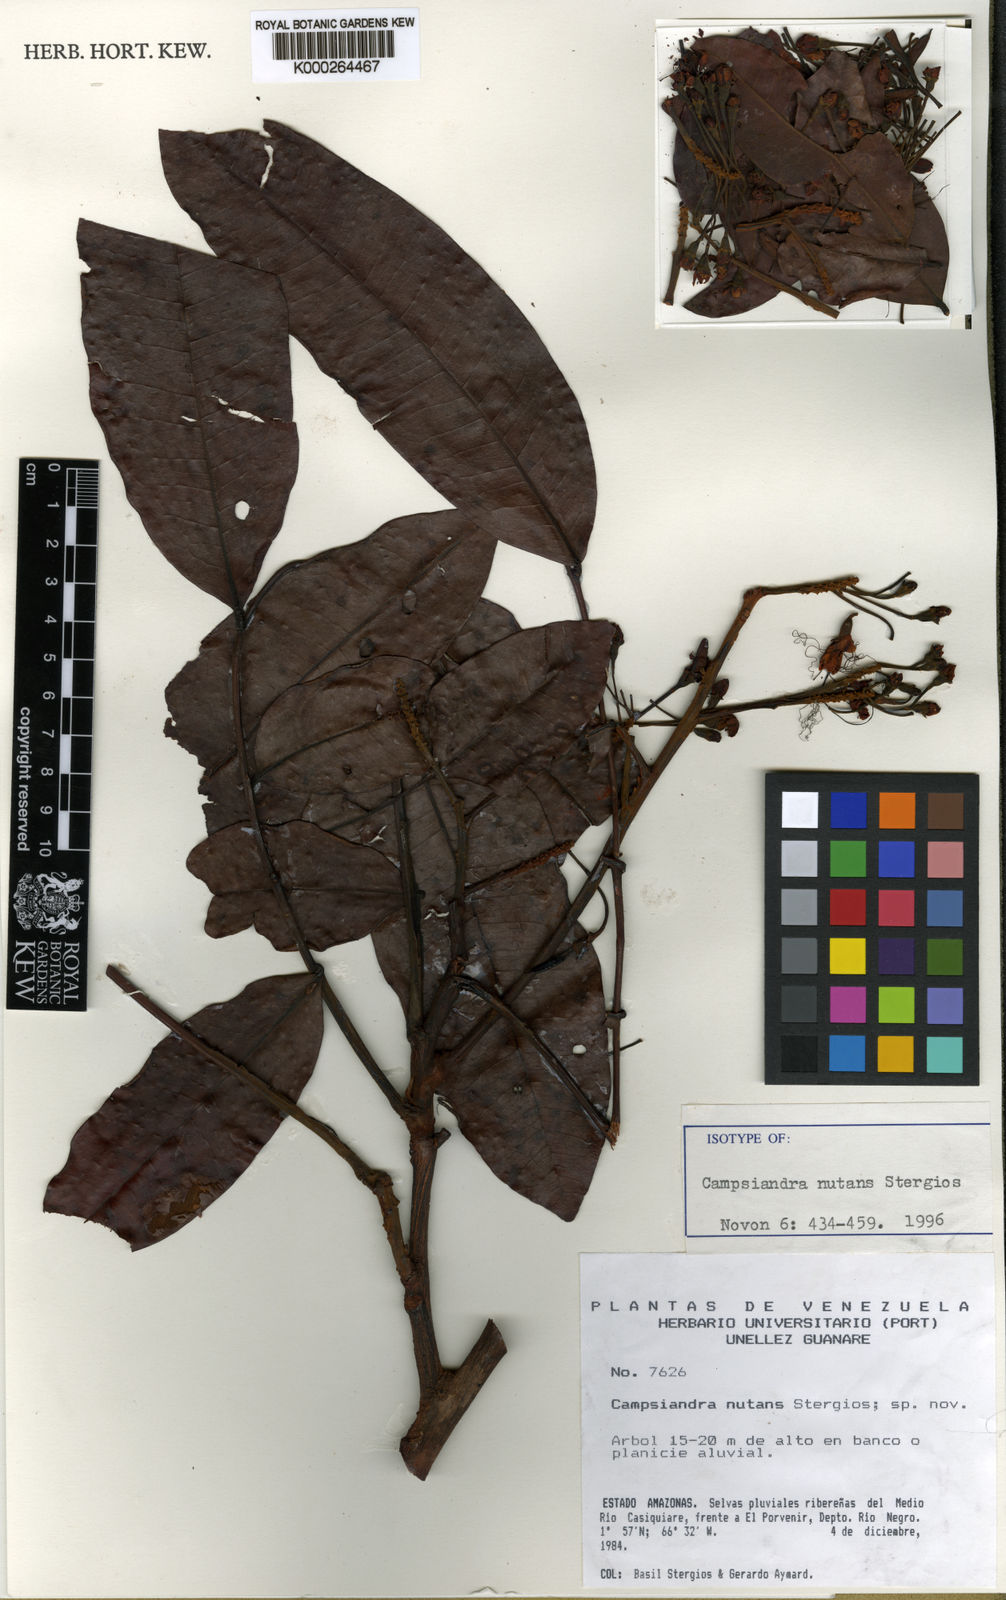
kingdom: Plantae
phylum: Tracheophyta
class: Magnoliopsida
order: Fabales
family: Fabaceae
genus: Campsiandra
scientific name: Campsiandra nutans
